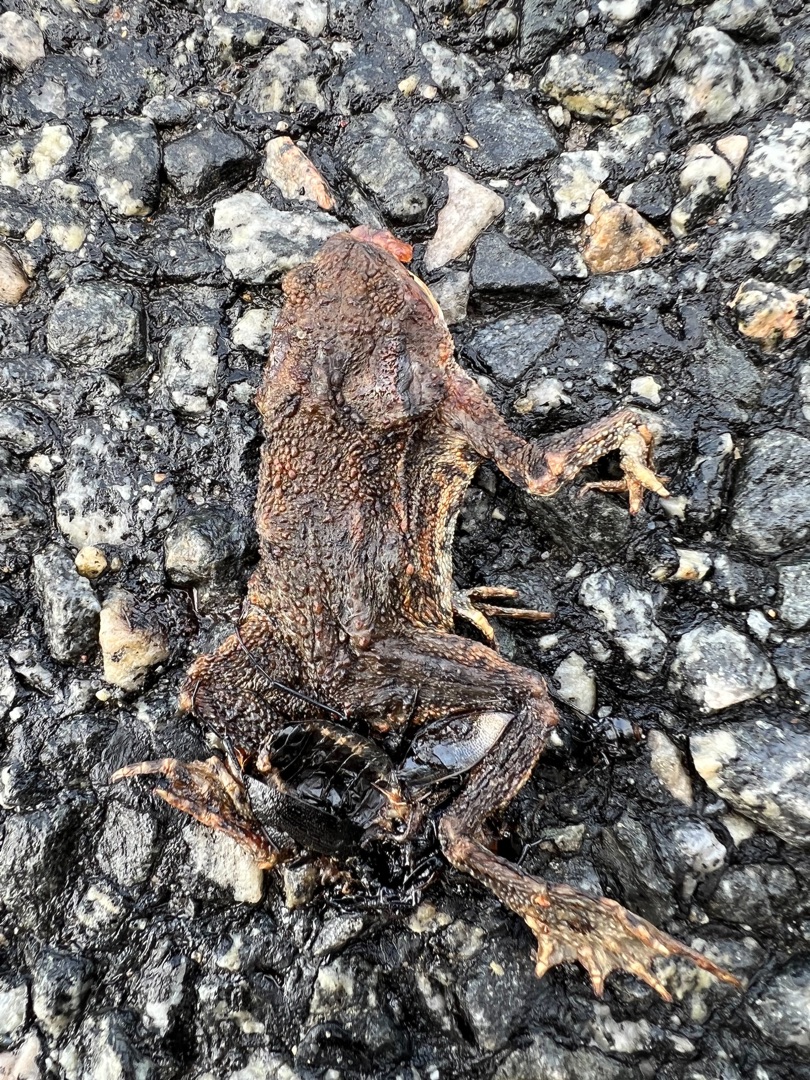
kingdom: Animalia
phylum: Chordata
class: Amphibia
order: Anura
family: Bufonidae
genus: Bufo
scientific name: Bufo bufo
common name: Skrubtudse
